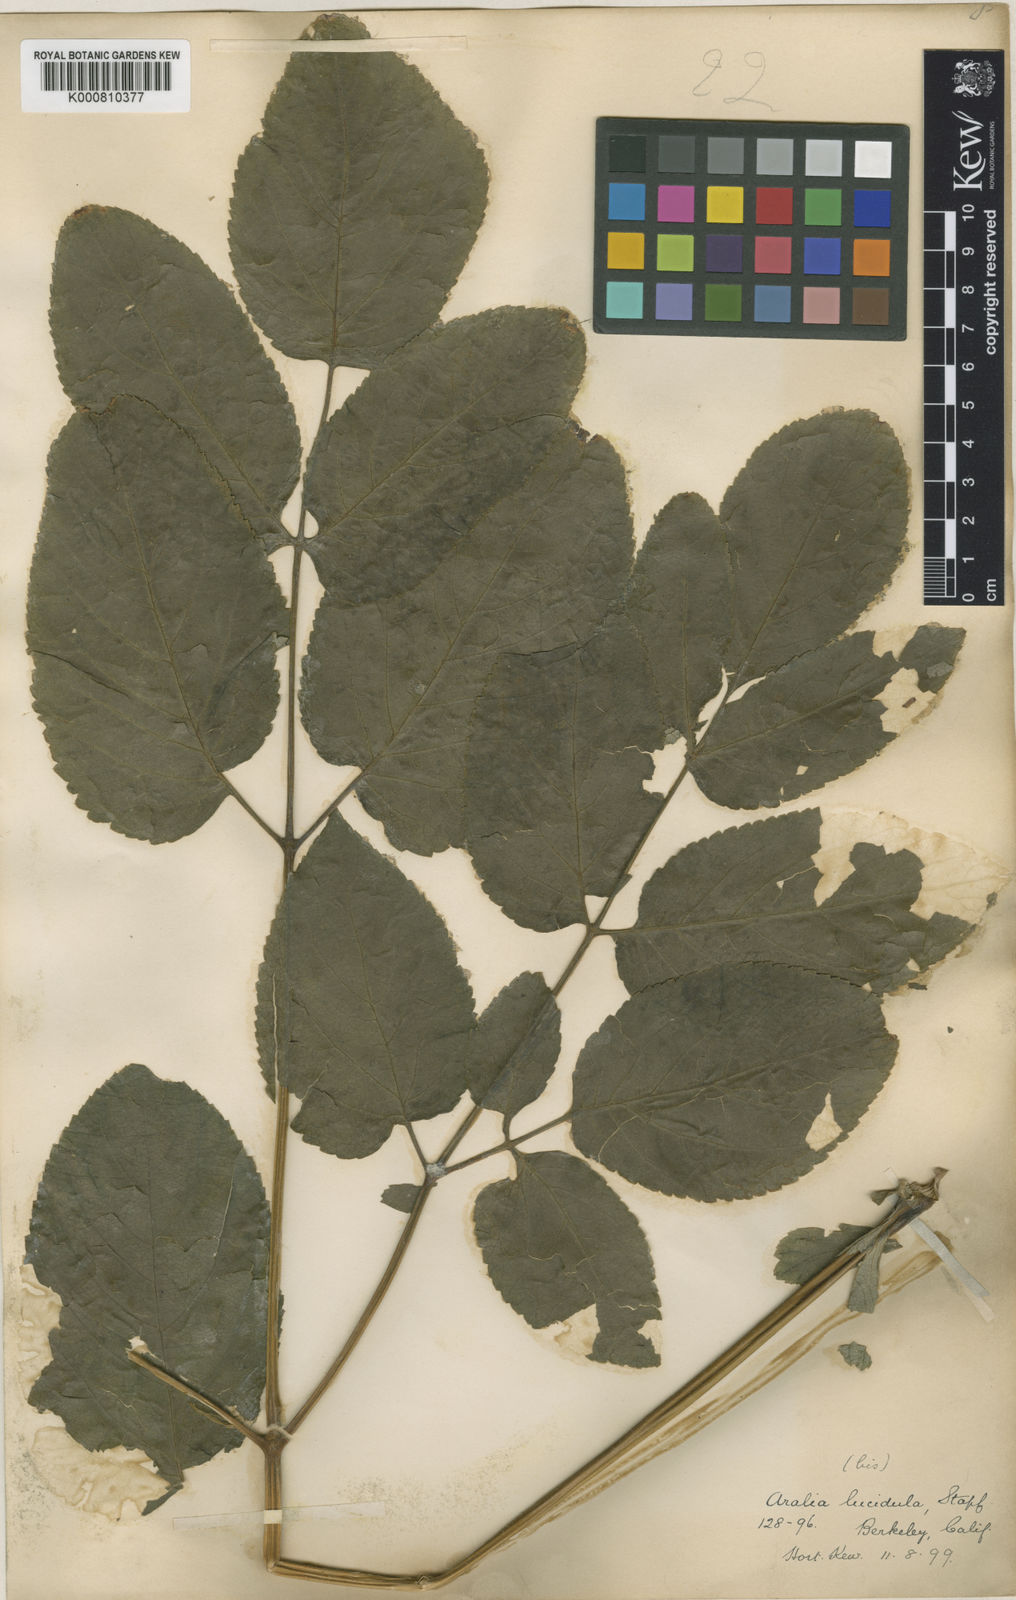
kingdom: Plantae
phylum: Tracheophyta
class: Magnoliopsida
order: Apiales
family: Araliaceae
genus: Aralia
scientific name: Aralia cachemirica
